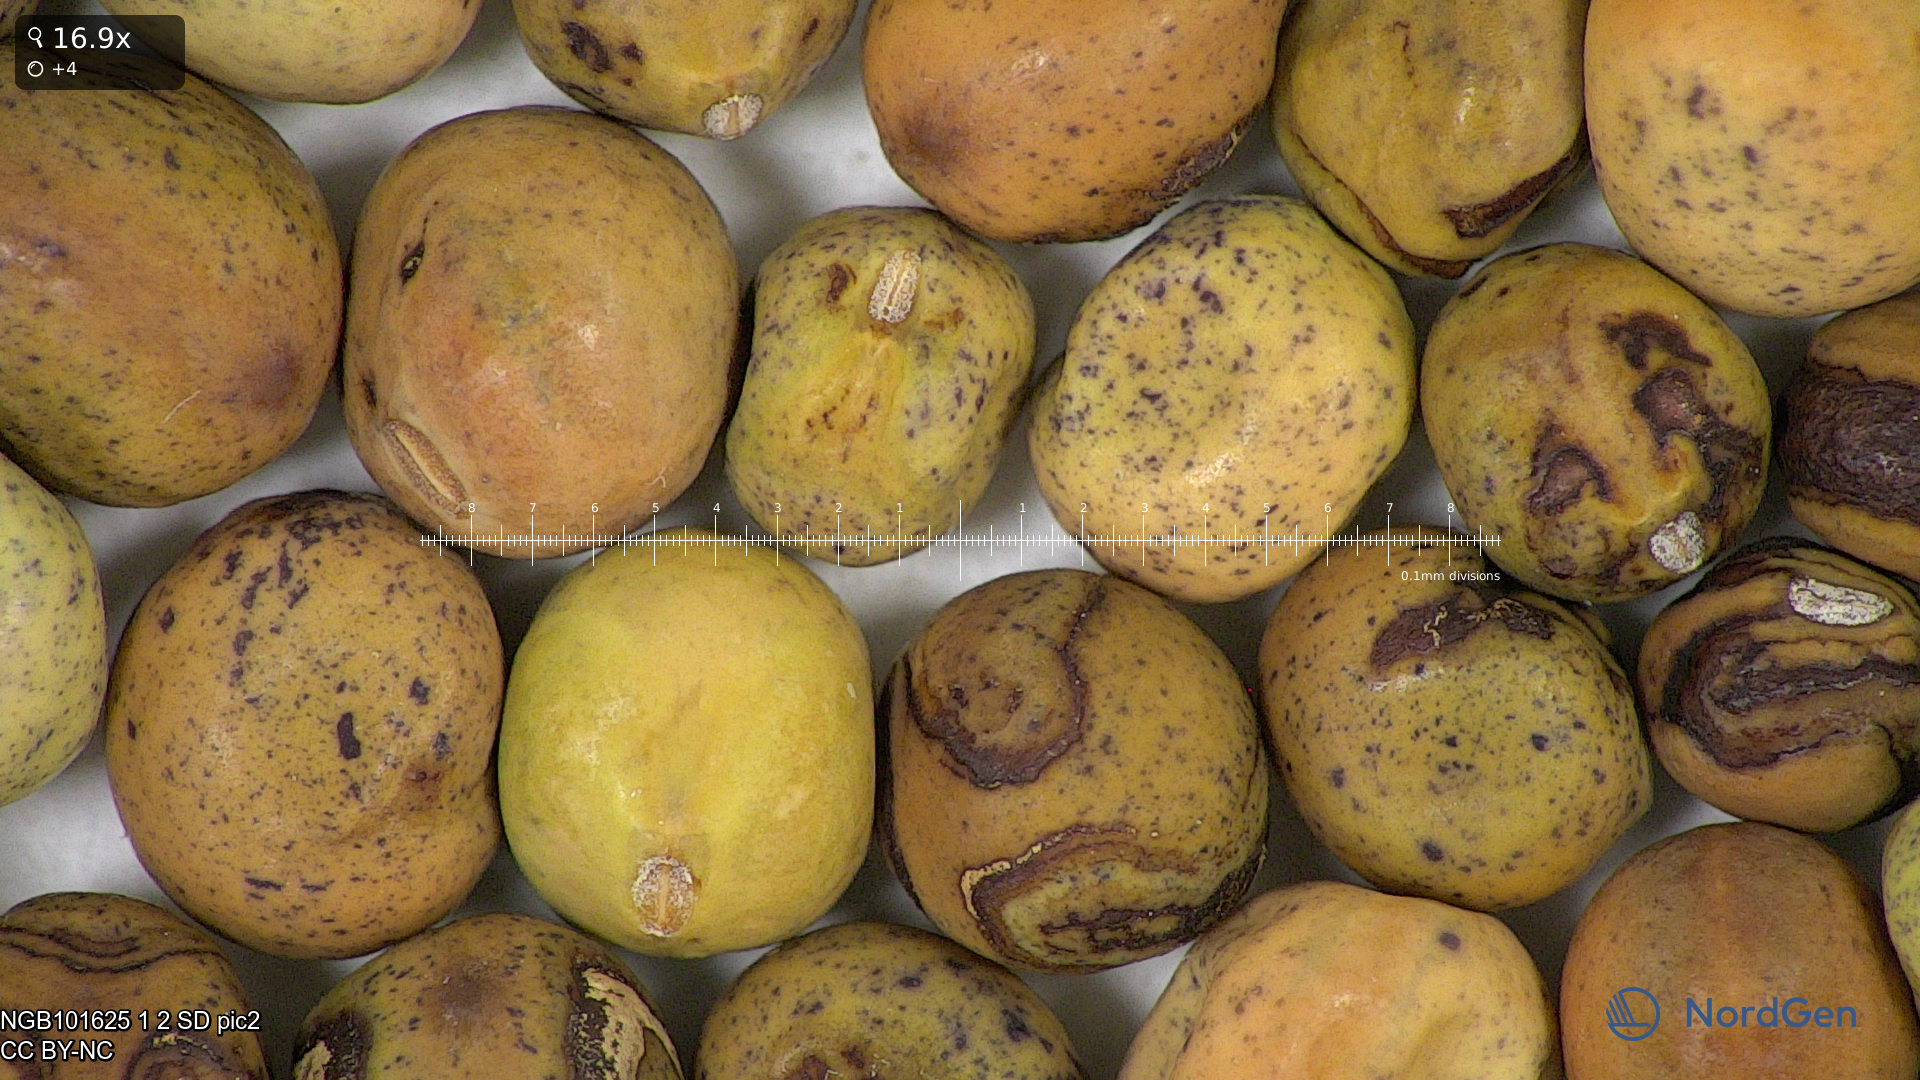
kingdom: Plantae
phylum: Tracheophyta
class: Magnoliopsida
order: Fabales
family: Fabaceae
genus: Lathyrus
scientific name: Lathyrus oleraceus
